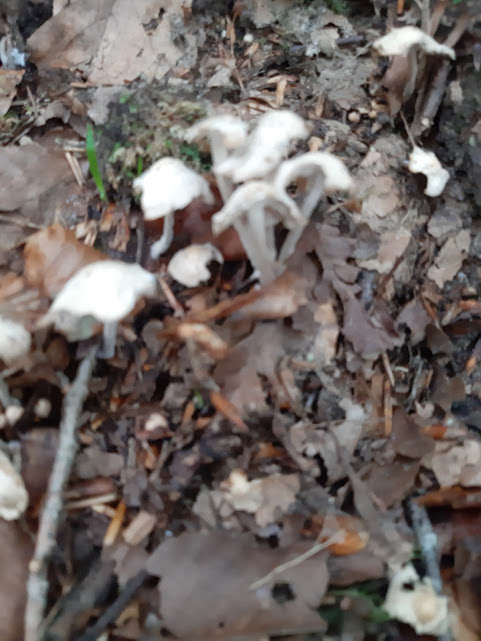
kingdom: Fungi
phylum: Basidiomycota
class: Agaricomycetes
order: Agaricales
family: Omphalotaceae
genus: Collybiopsis
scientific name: Collybiopsis confluens
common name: knippe-fladhat
